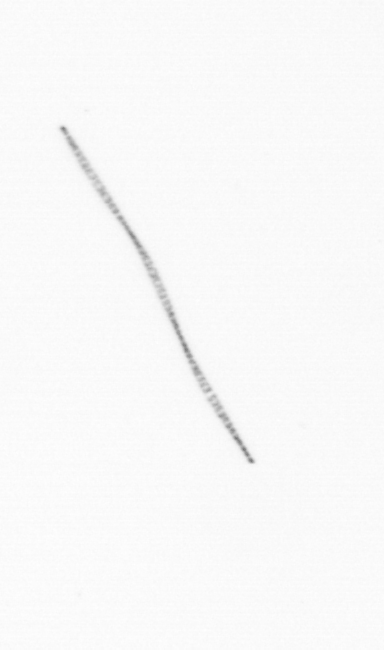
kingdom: Chromista
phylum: Ochrophyta
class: Bacillariophyceae
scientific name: Bacillariophyceae
